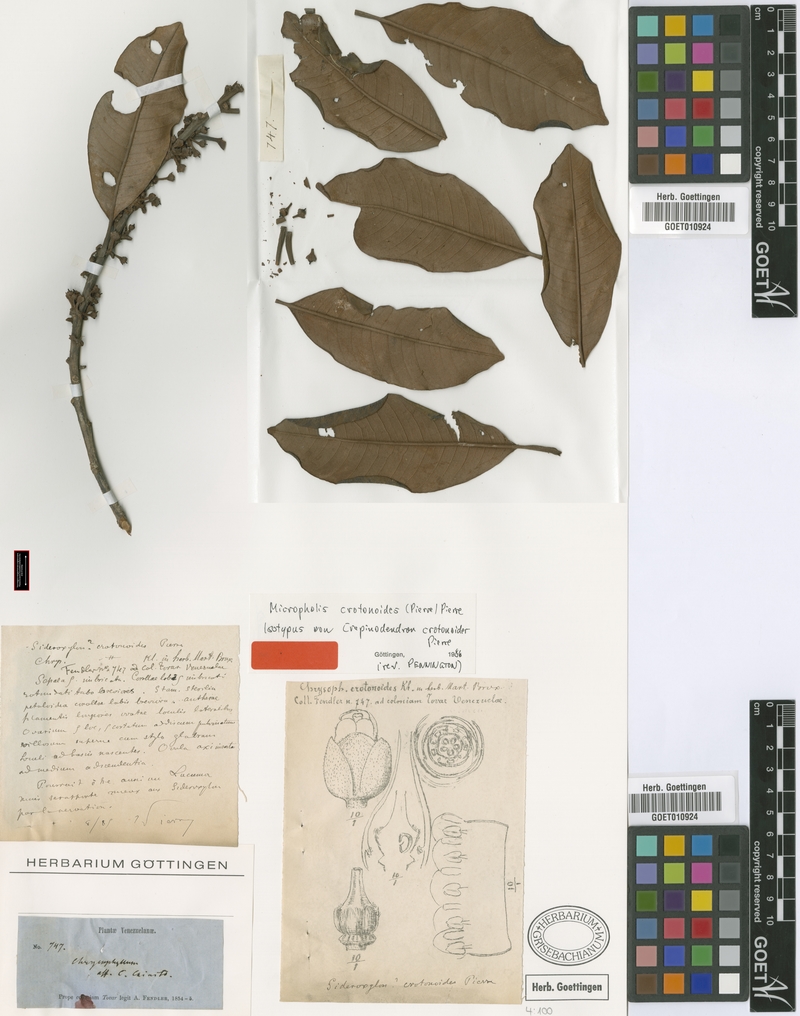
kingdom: Plantae
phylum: Tracheophyta
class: Magnoliopsida
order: Ericales
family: Sapotaceae
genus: Micropholis
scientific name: Micropholis crotonoides
